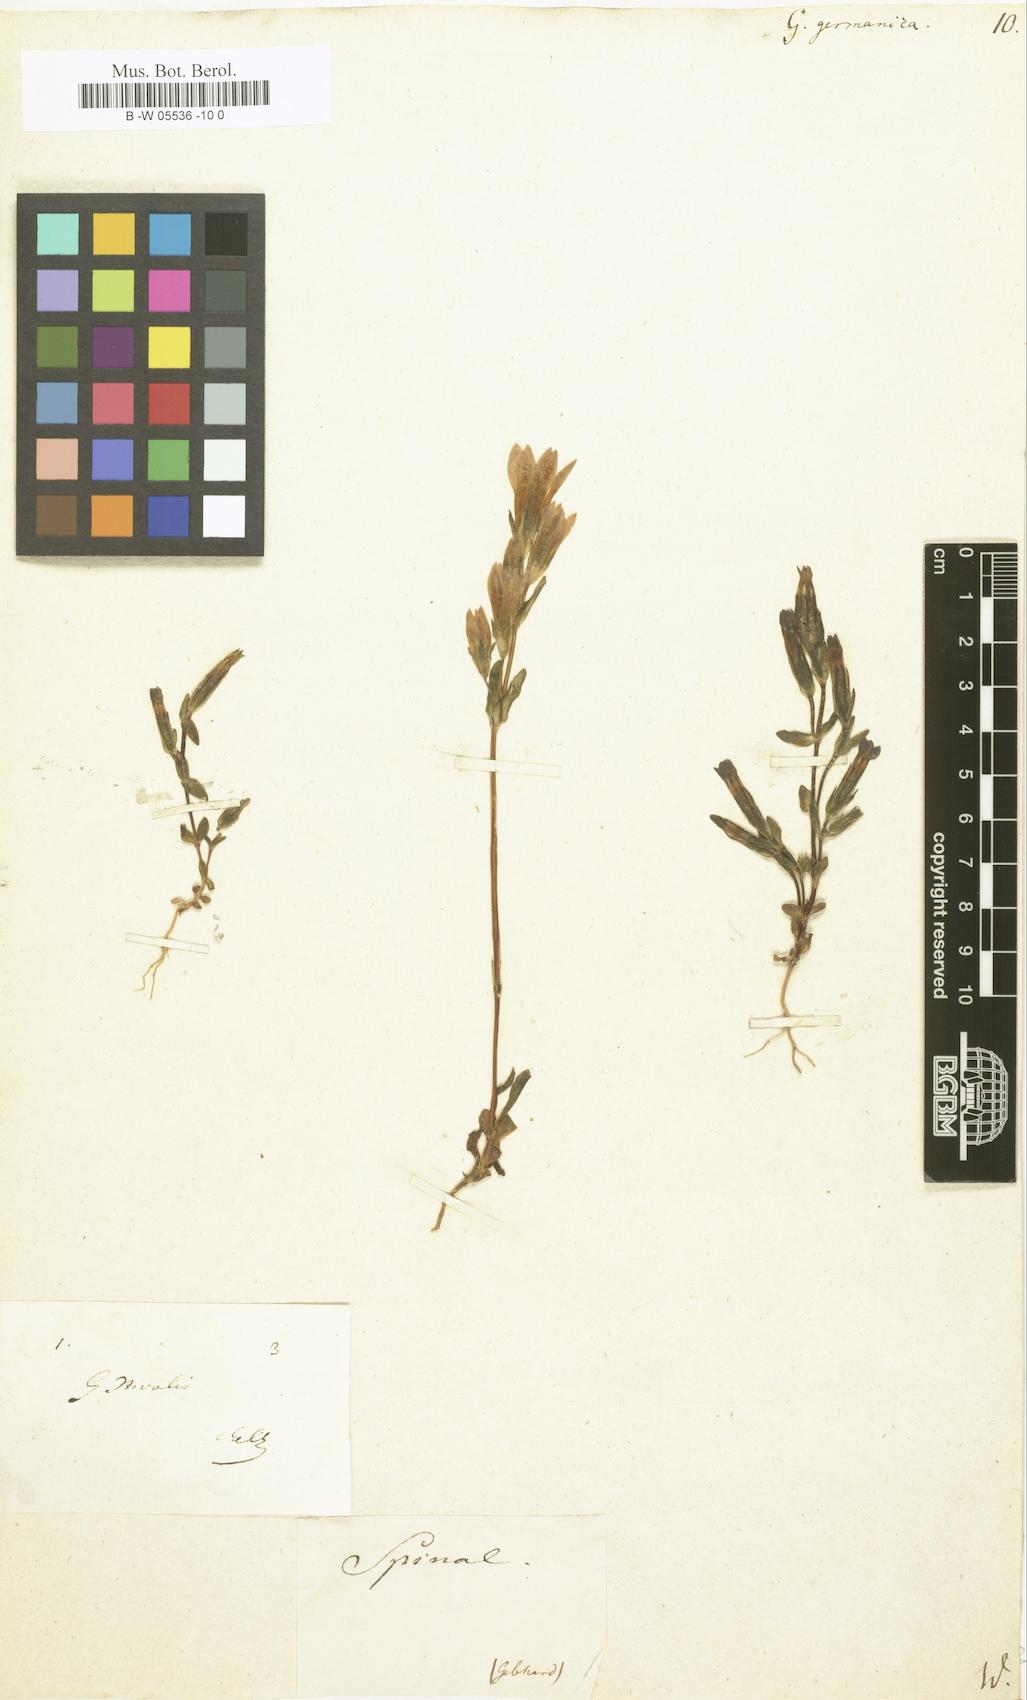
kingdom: Plantae
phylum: Tracheophyta
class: Magnoliopsida
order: Gentianales
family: Gentianaceae
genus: Gentianella
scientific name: Gentianella germanica
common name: Chiltern-gentian
